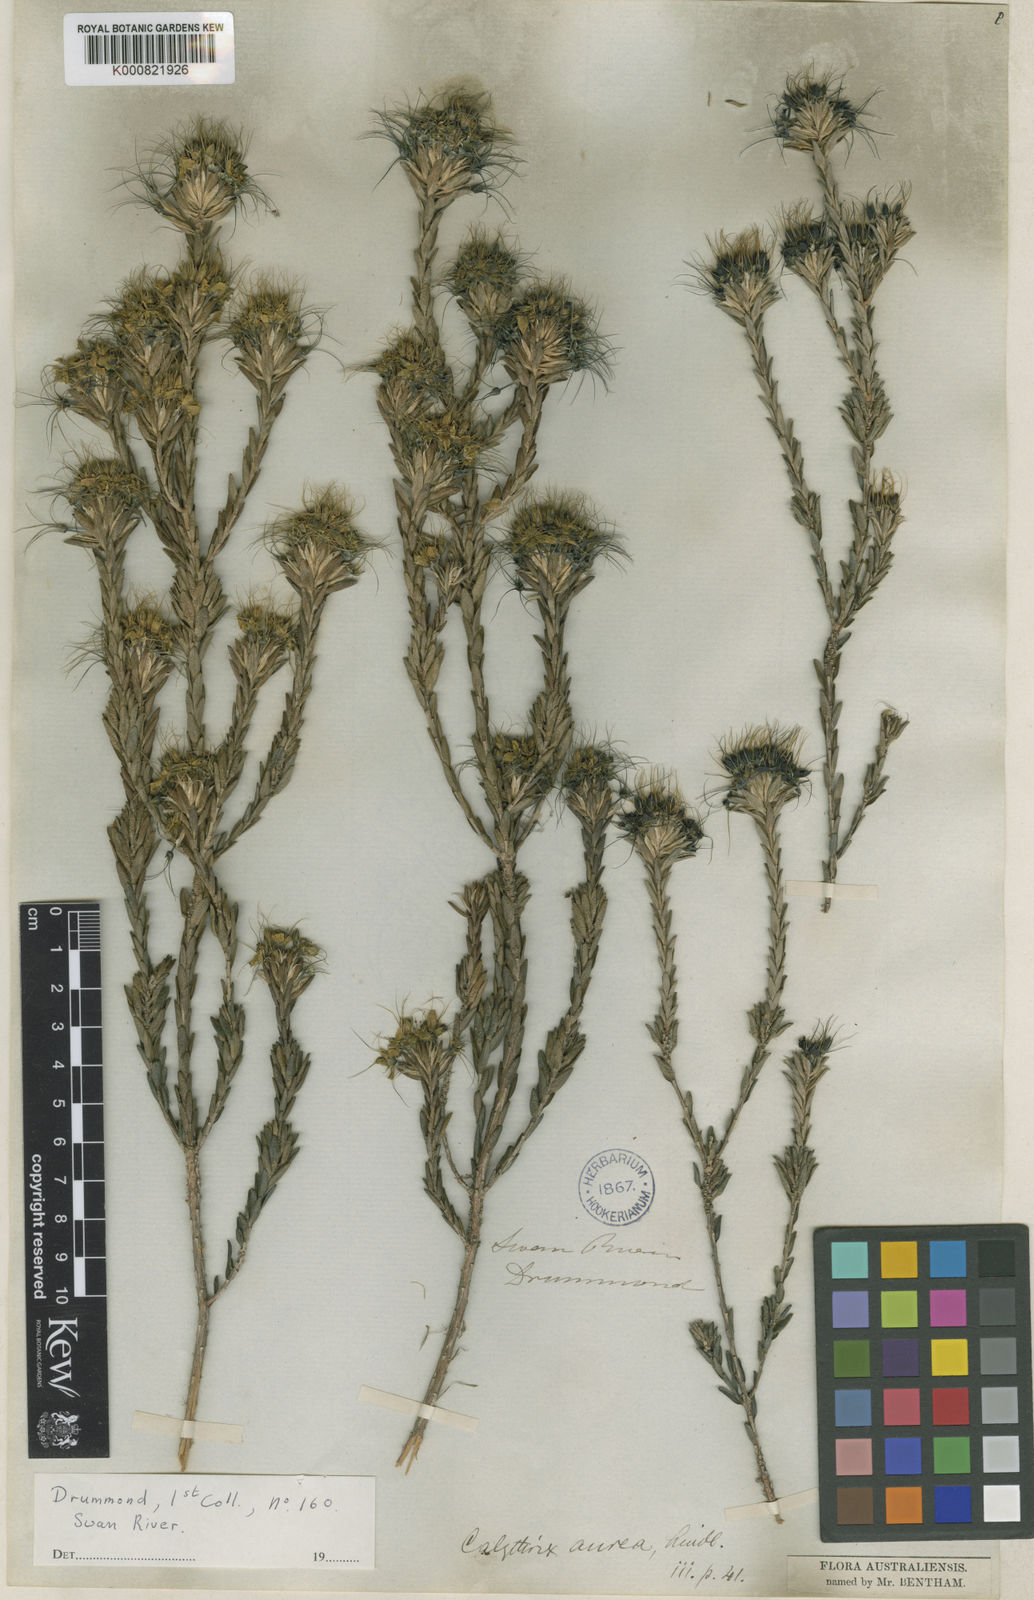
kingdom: Plantae
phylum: Tracheophyta
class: Magnoliopsida
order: Myrtales
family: Myrtaceae
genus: Calytrix
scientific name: Calytrix aurea
